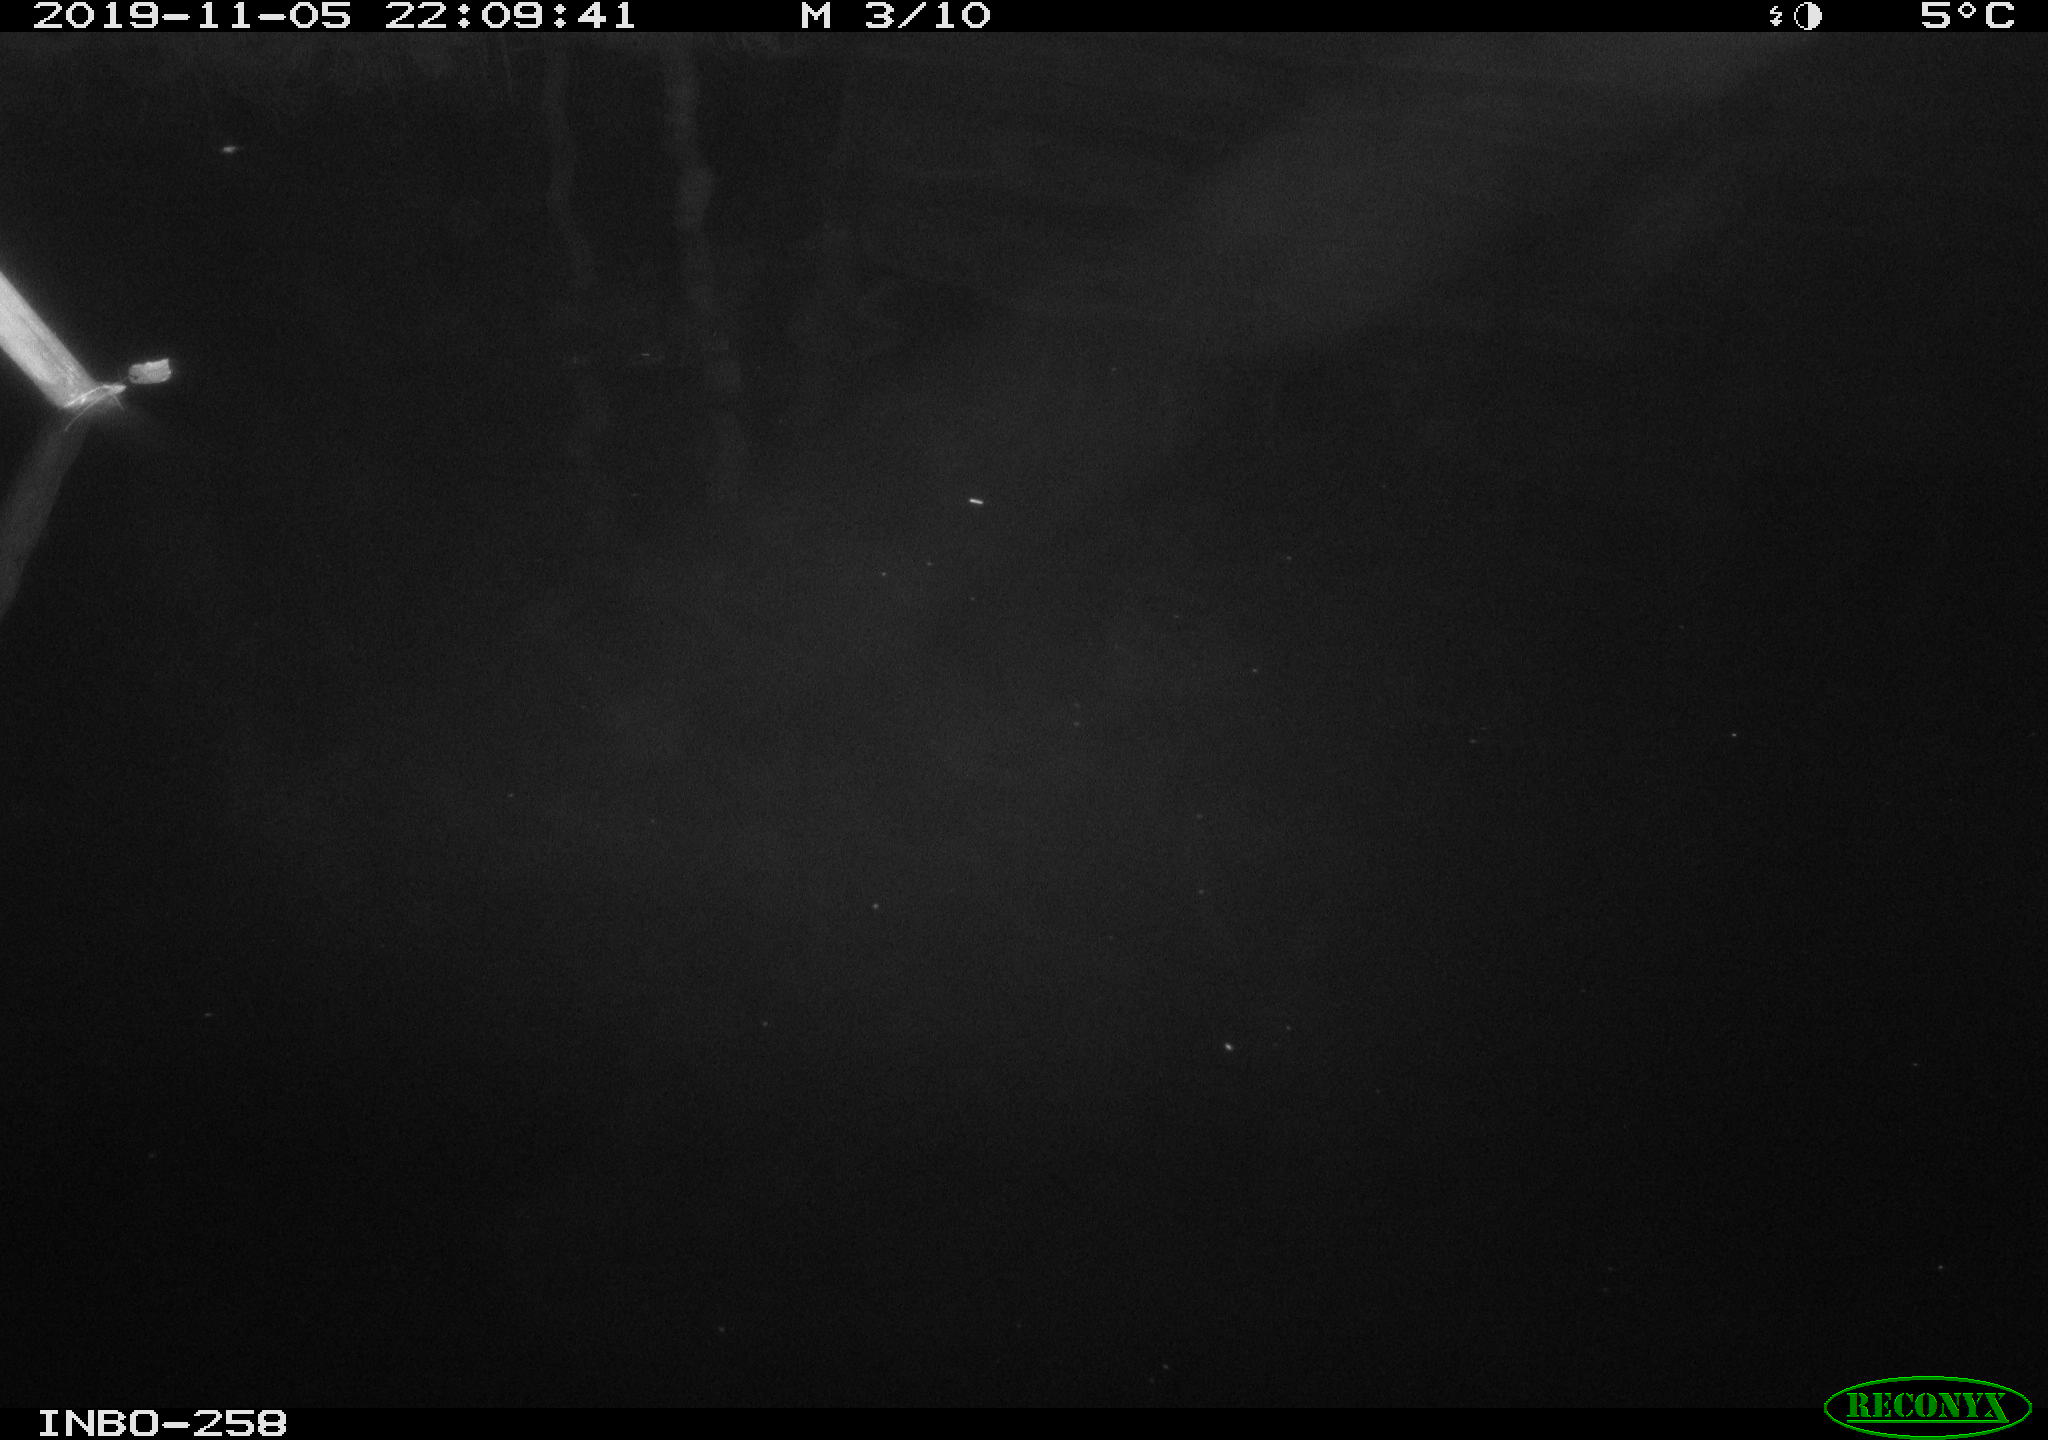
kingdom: Animalia
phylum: Chordata
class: Aves
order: Anseriformes
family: Anatidae
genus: Anas
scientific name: Anas platyrhynchos
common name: Mallard
